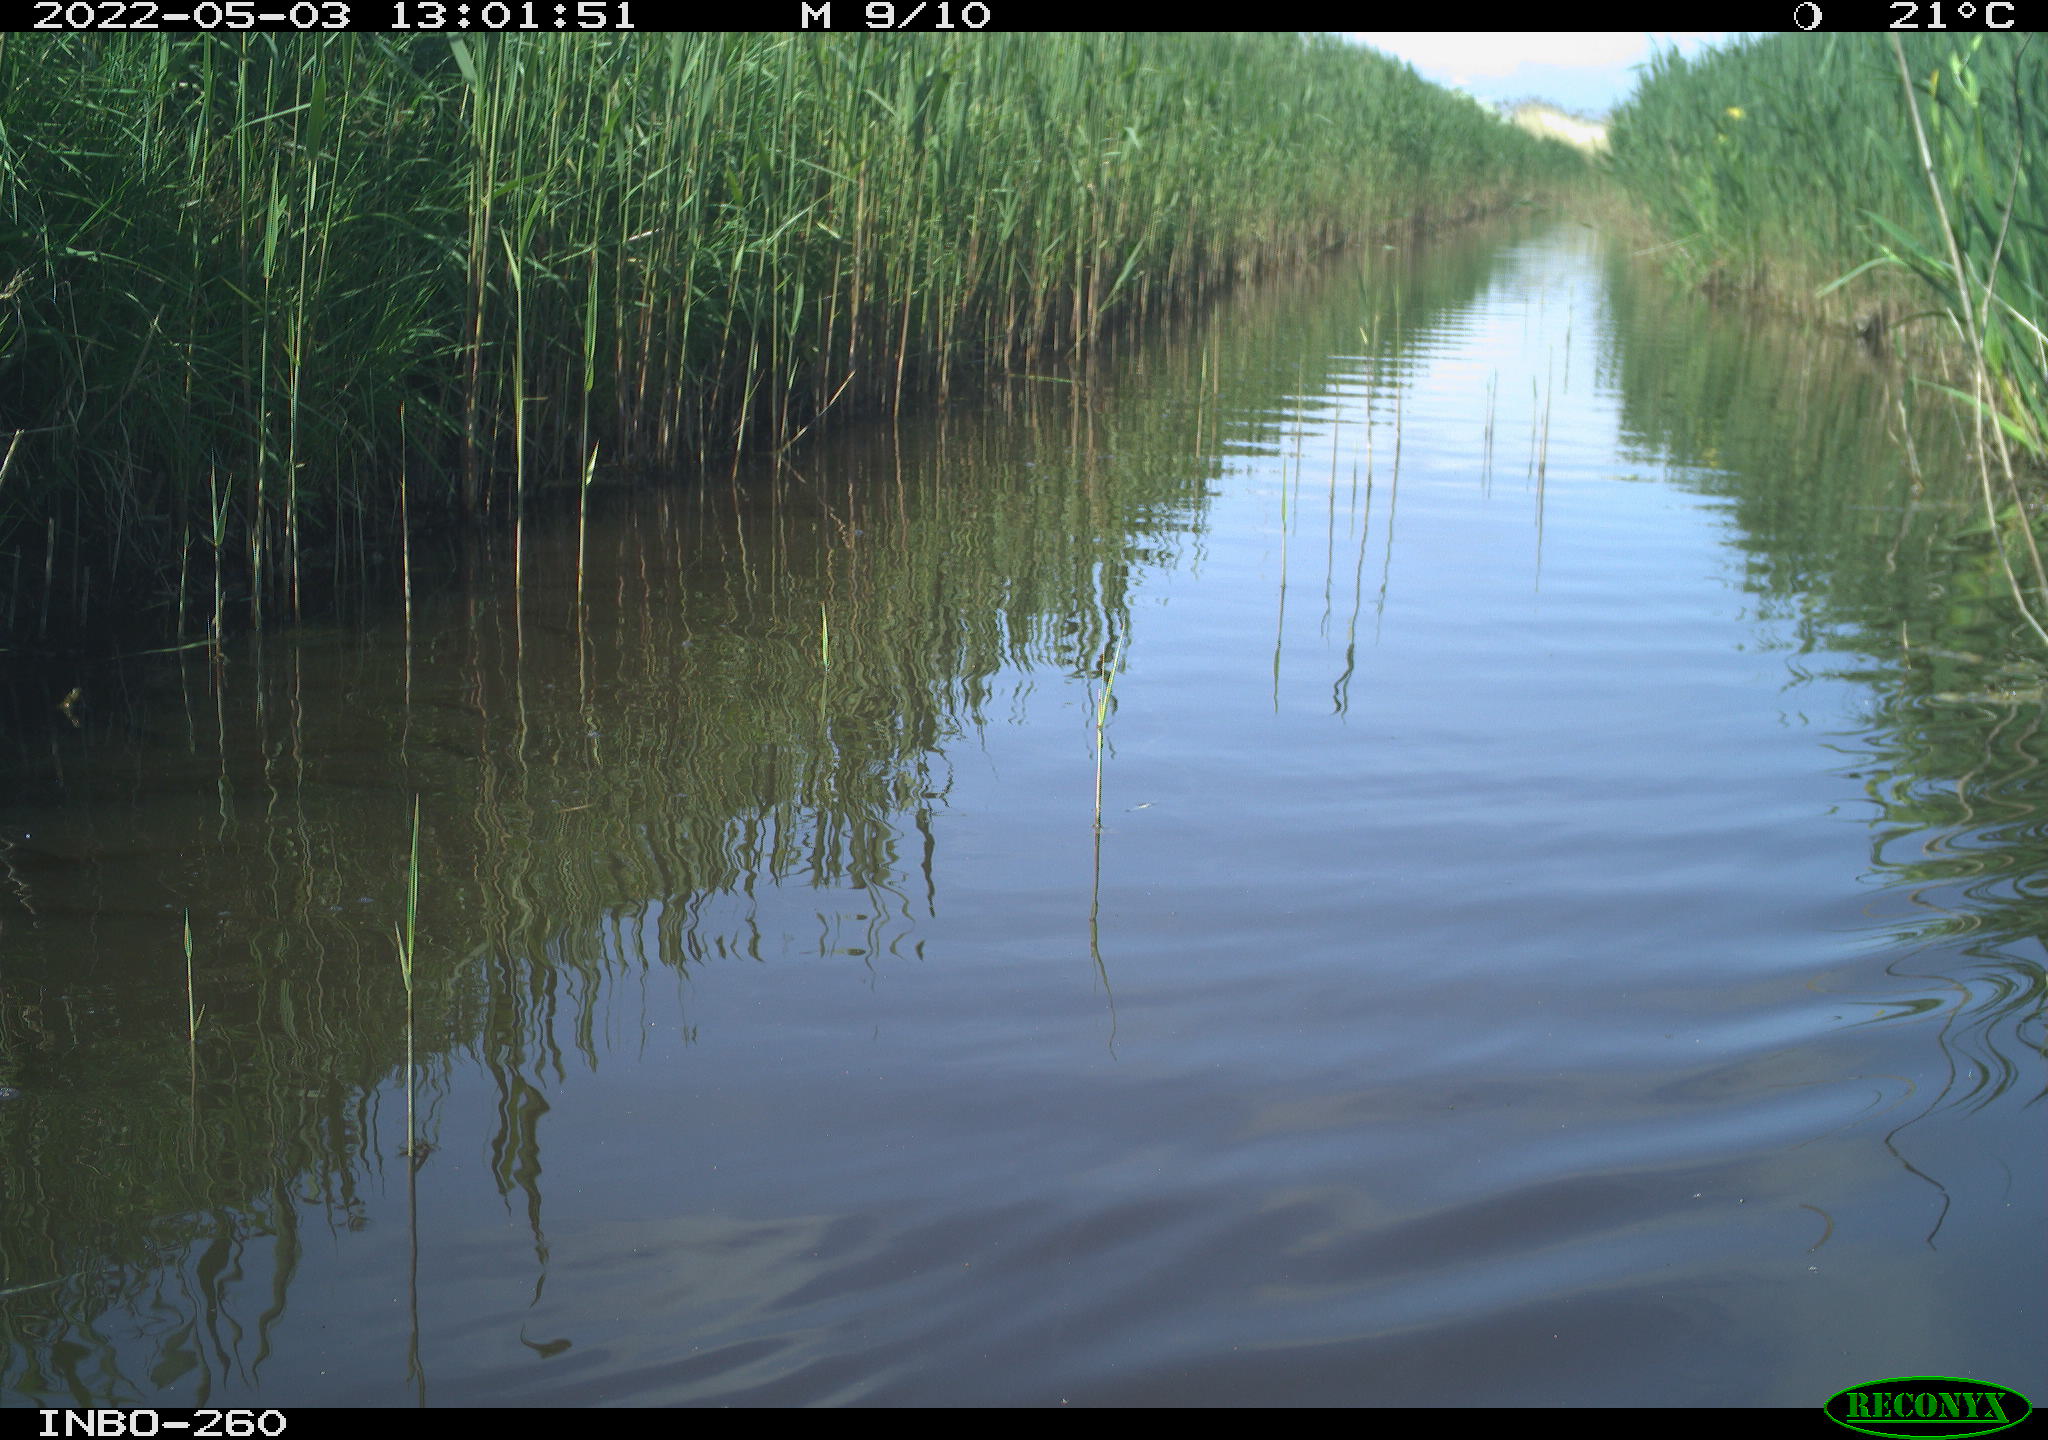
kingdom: Animalia
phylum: Chordata
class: Aves
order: Gruiformes
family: Rallidae
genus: Fulica
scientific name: Fulica atra
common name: Eurasian coot
